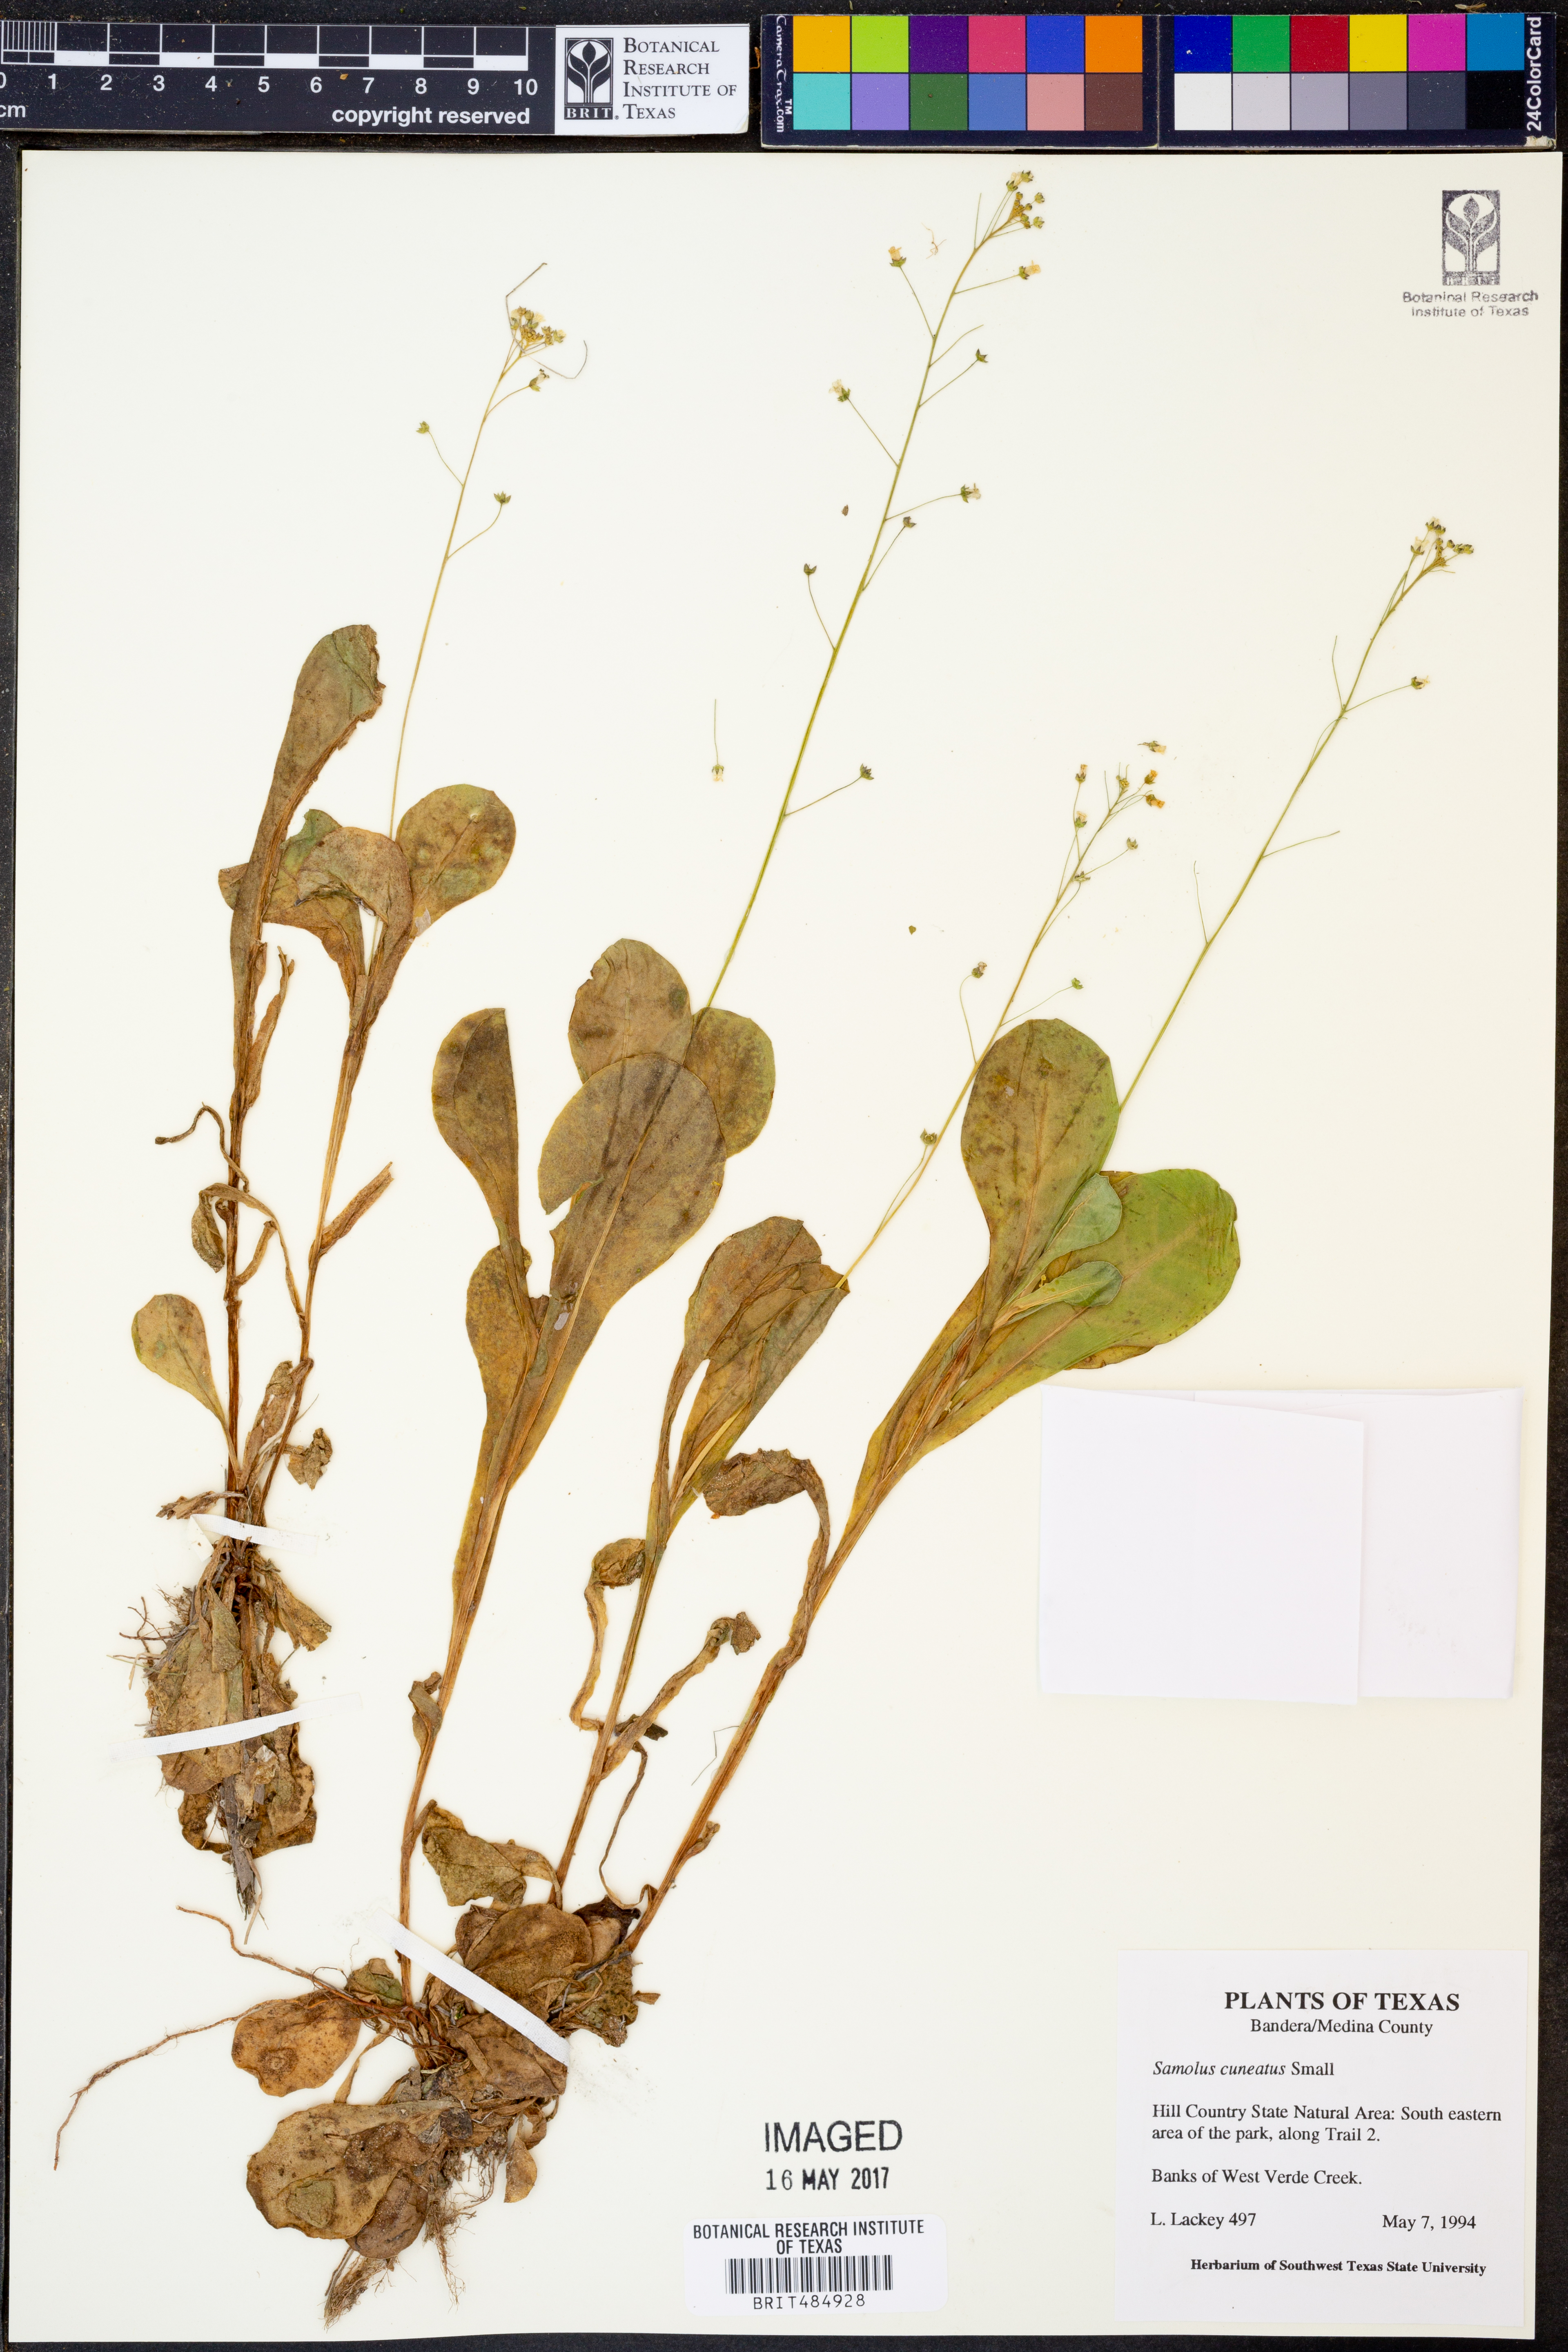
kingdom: Plantae
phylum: Tracheophyta
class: Magnoliopsida
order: Ericales
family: Primulaceae
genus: Samolus
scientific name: Samolus ebracteatus
